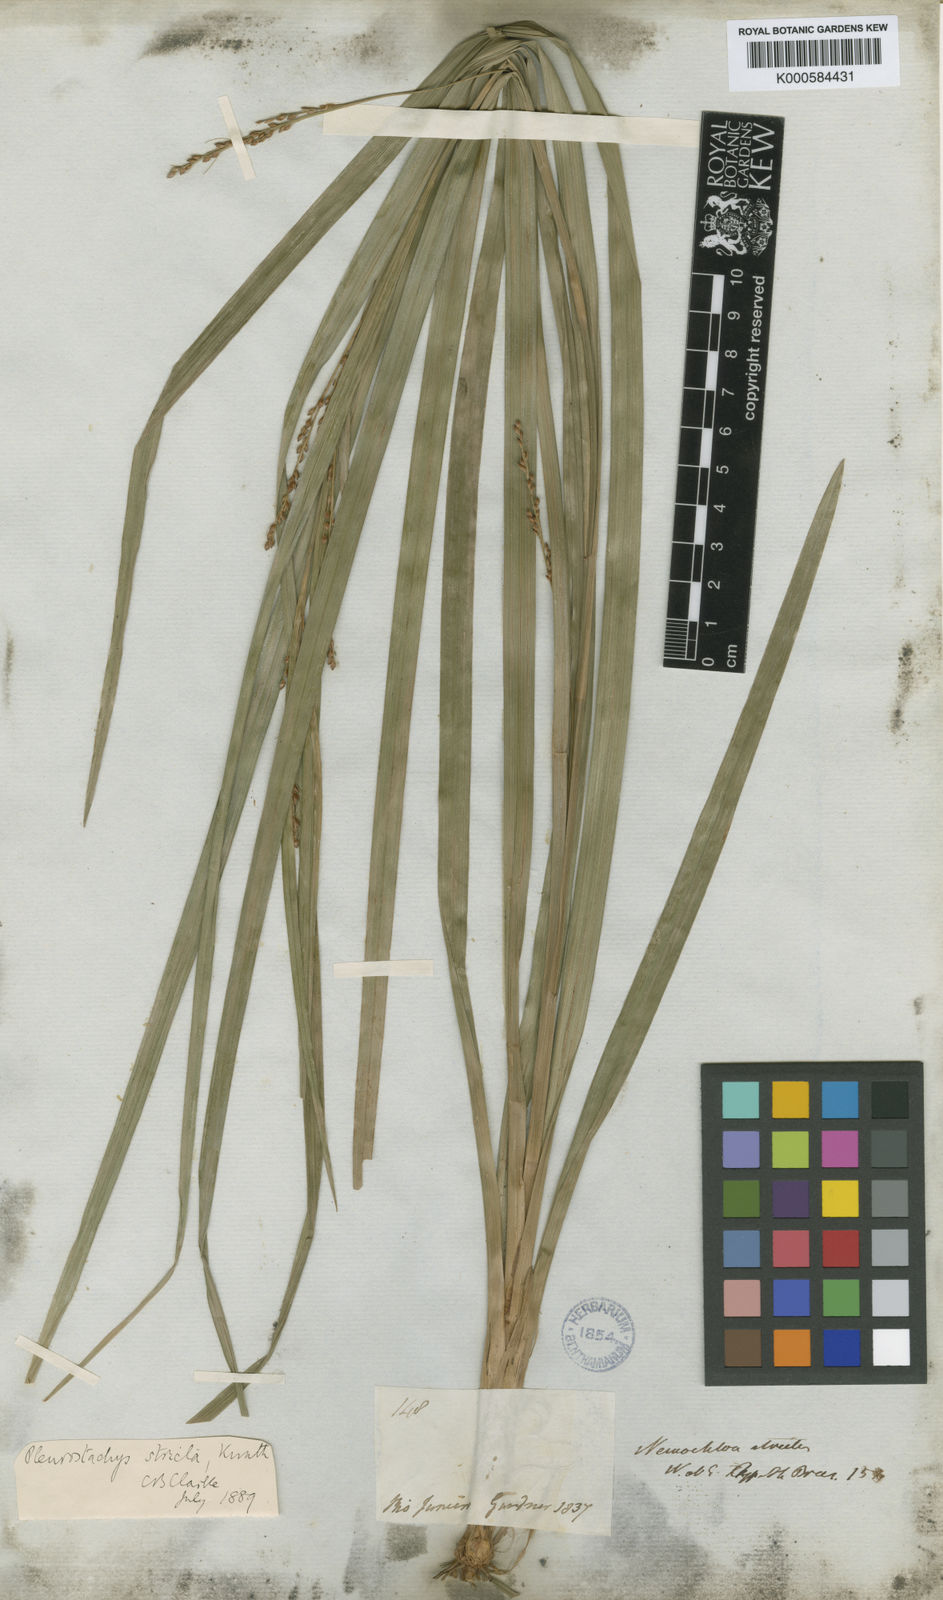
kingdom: Plantae
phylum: Tracheophyta
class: Liliopsida
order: Poales
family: Cyperaceae
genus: Rhynchospora
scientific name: Rhynchospora Pleurostachys muelleri
